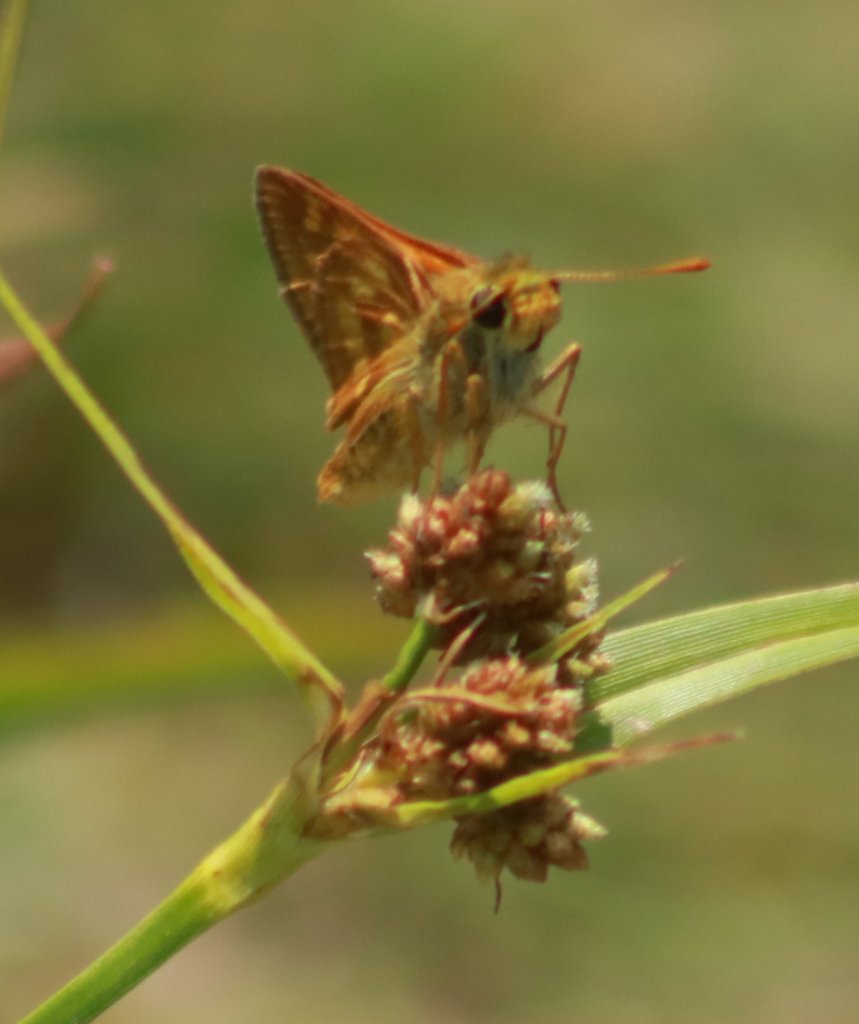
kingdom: Animalia
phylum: Arthropoda
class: Insecta
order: Lepidoptera
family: Hesperiidae
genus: Polites
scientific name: Polites
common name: Long Dash Skipper
